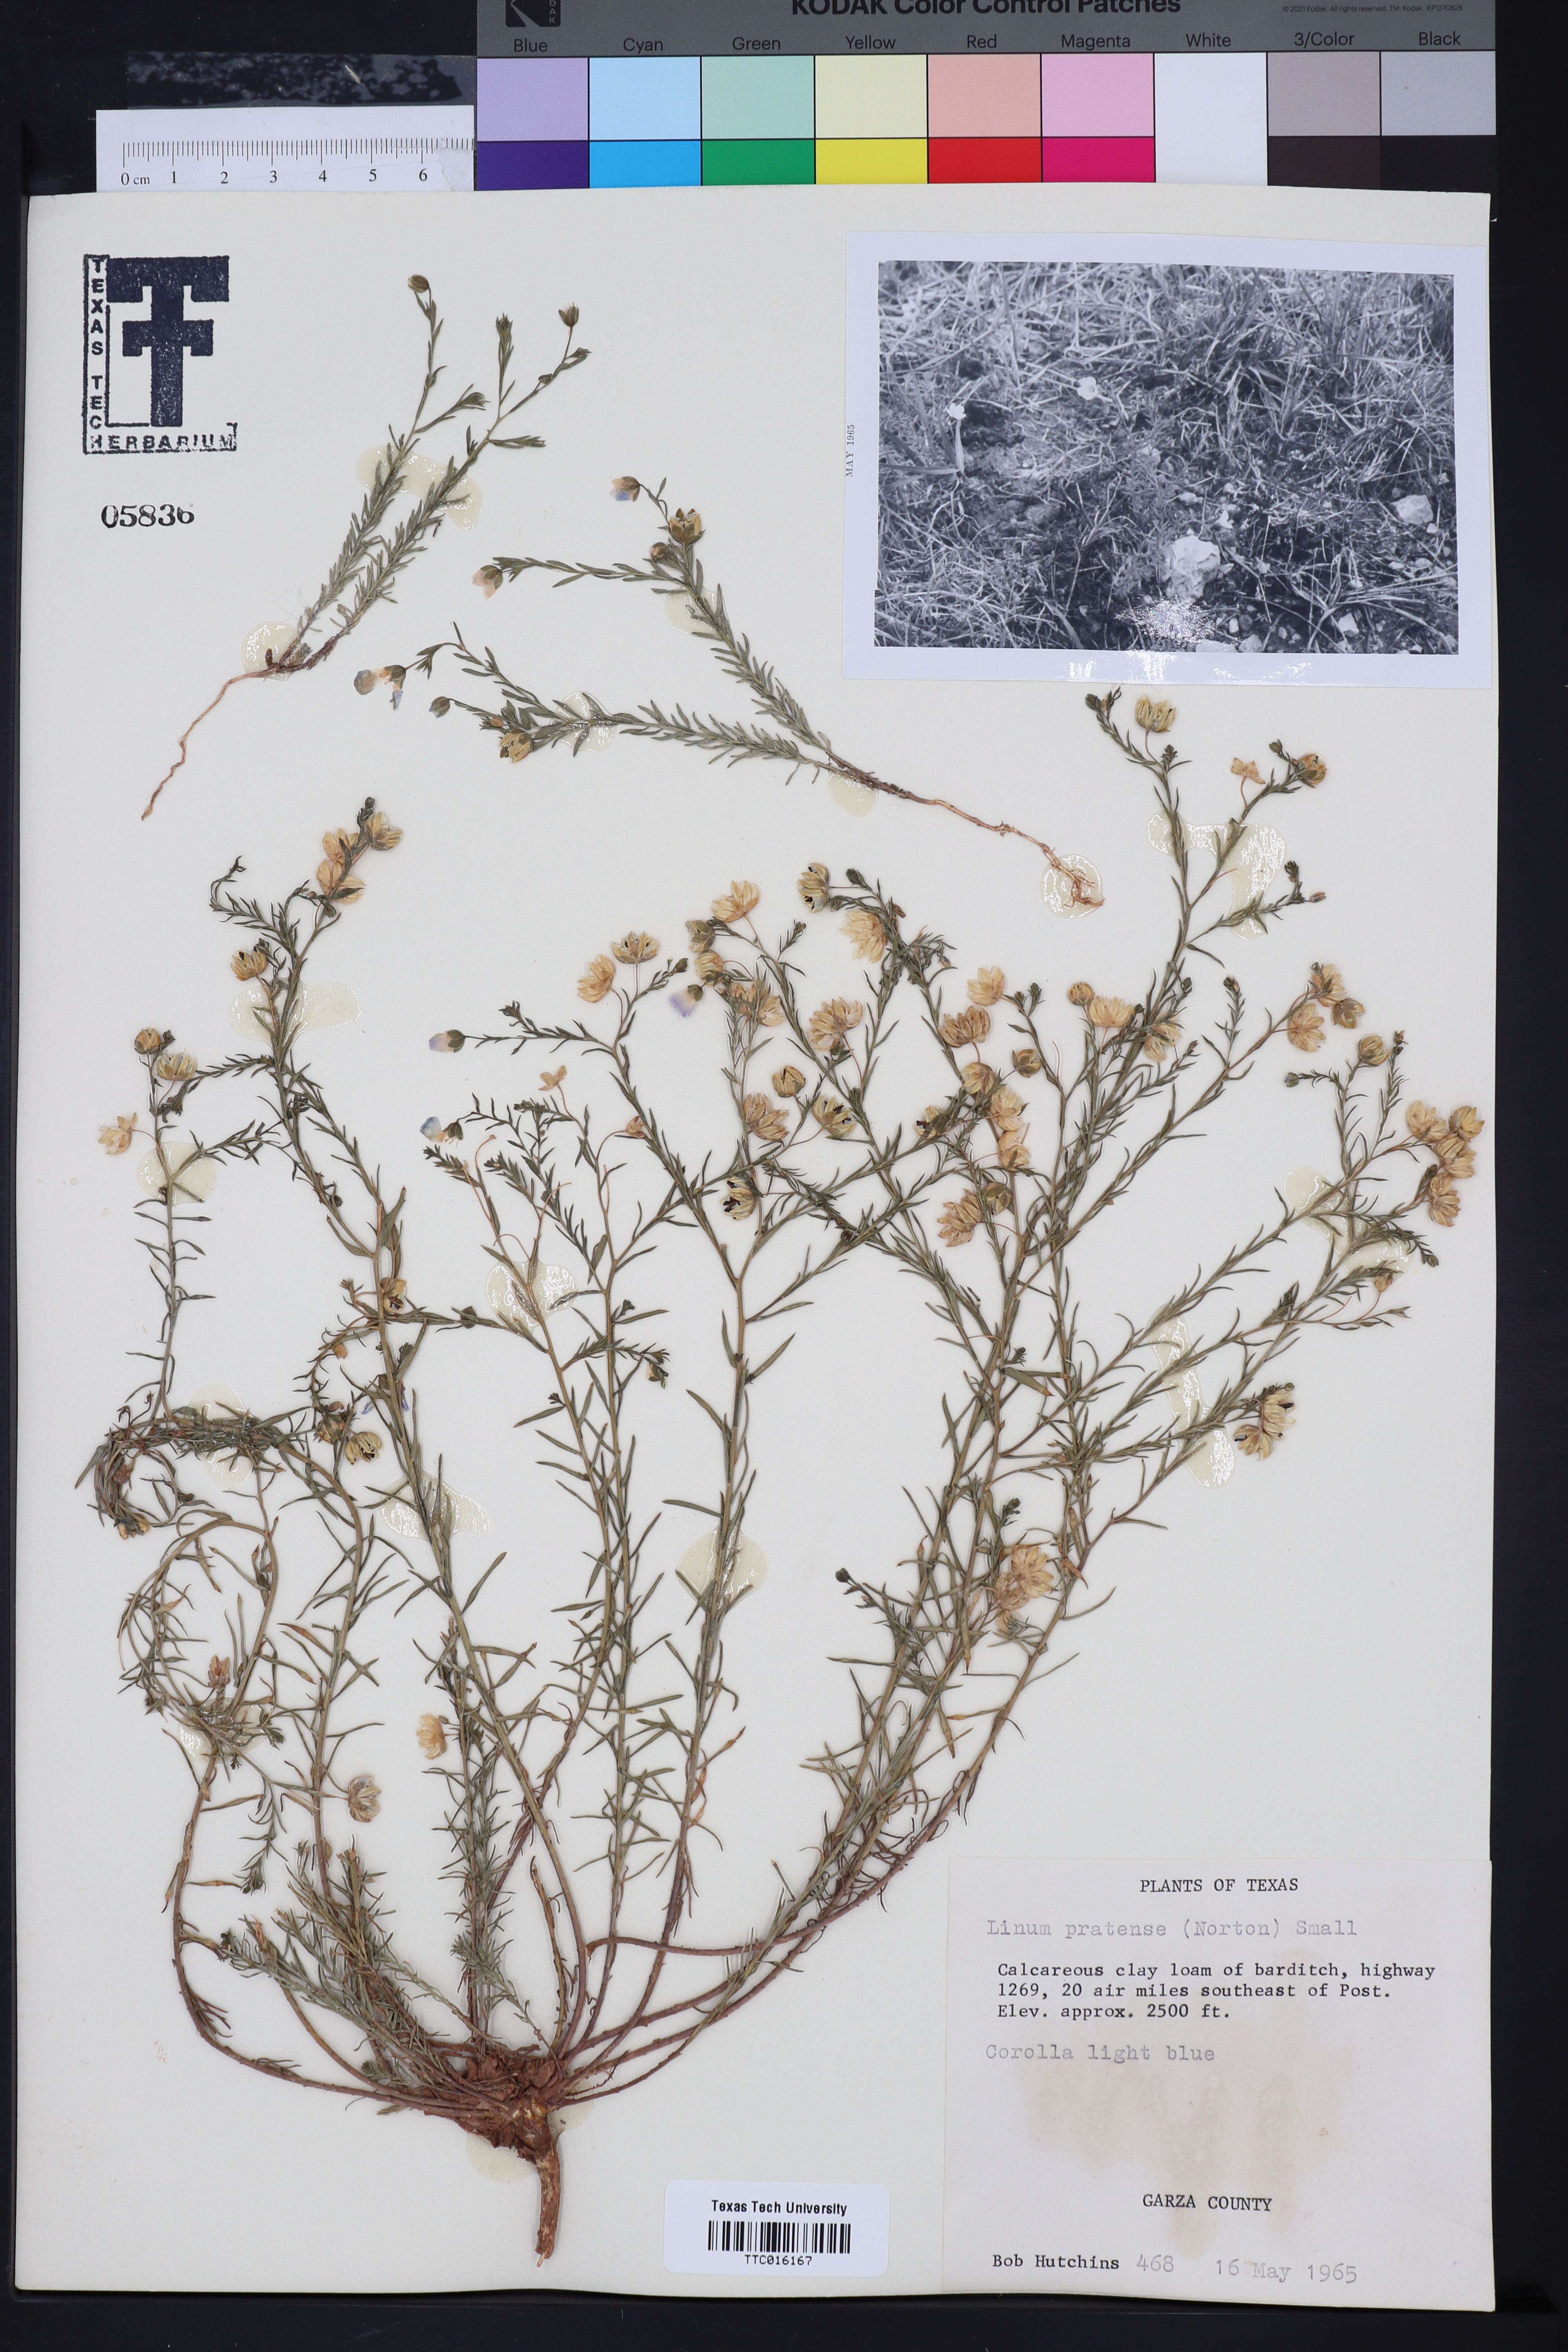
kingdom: Plantae
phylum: Tracheophyta
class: Magnoliopsida
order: Malpighiales
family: Linaceae
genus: Linum
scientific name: Linum pratense
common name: Norton's flax
